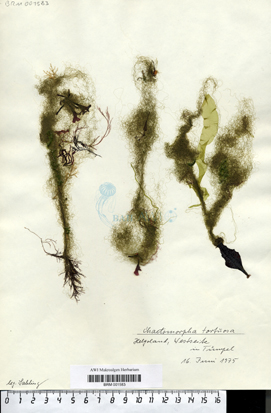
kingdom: Plantae
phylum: Chlorophyta
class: Ulvophyceae
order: Cladophorales
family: Cladophoraceae
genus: Chaetomorpha
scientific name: Chaetomorpha ligustica
